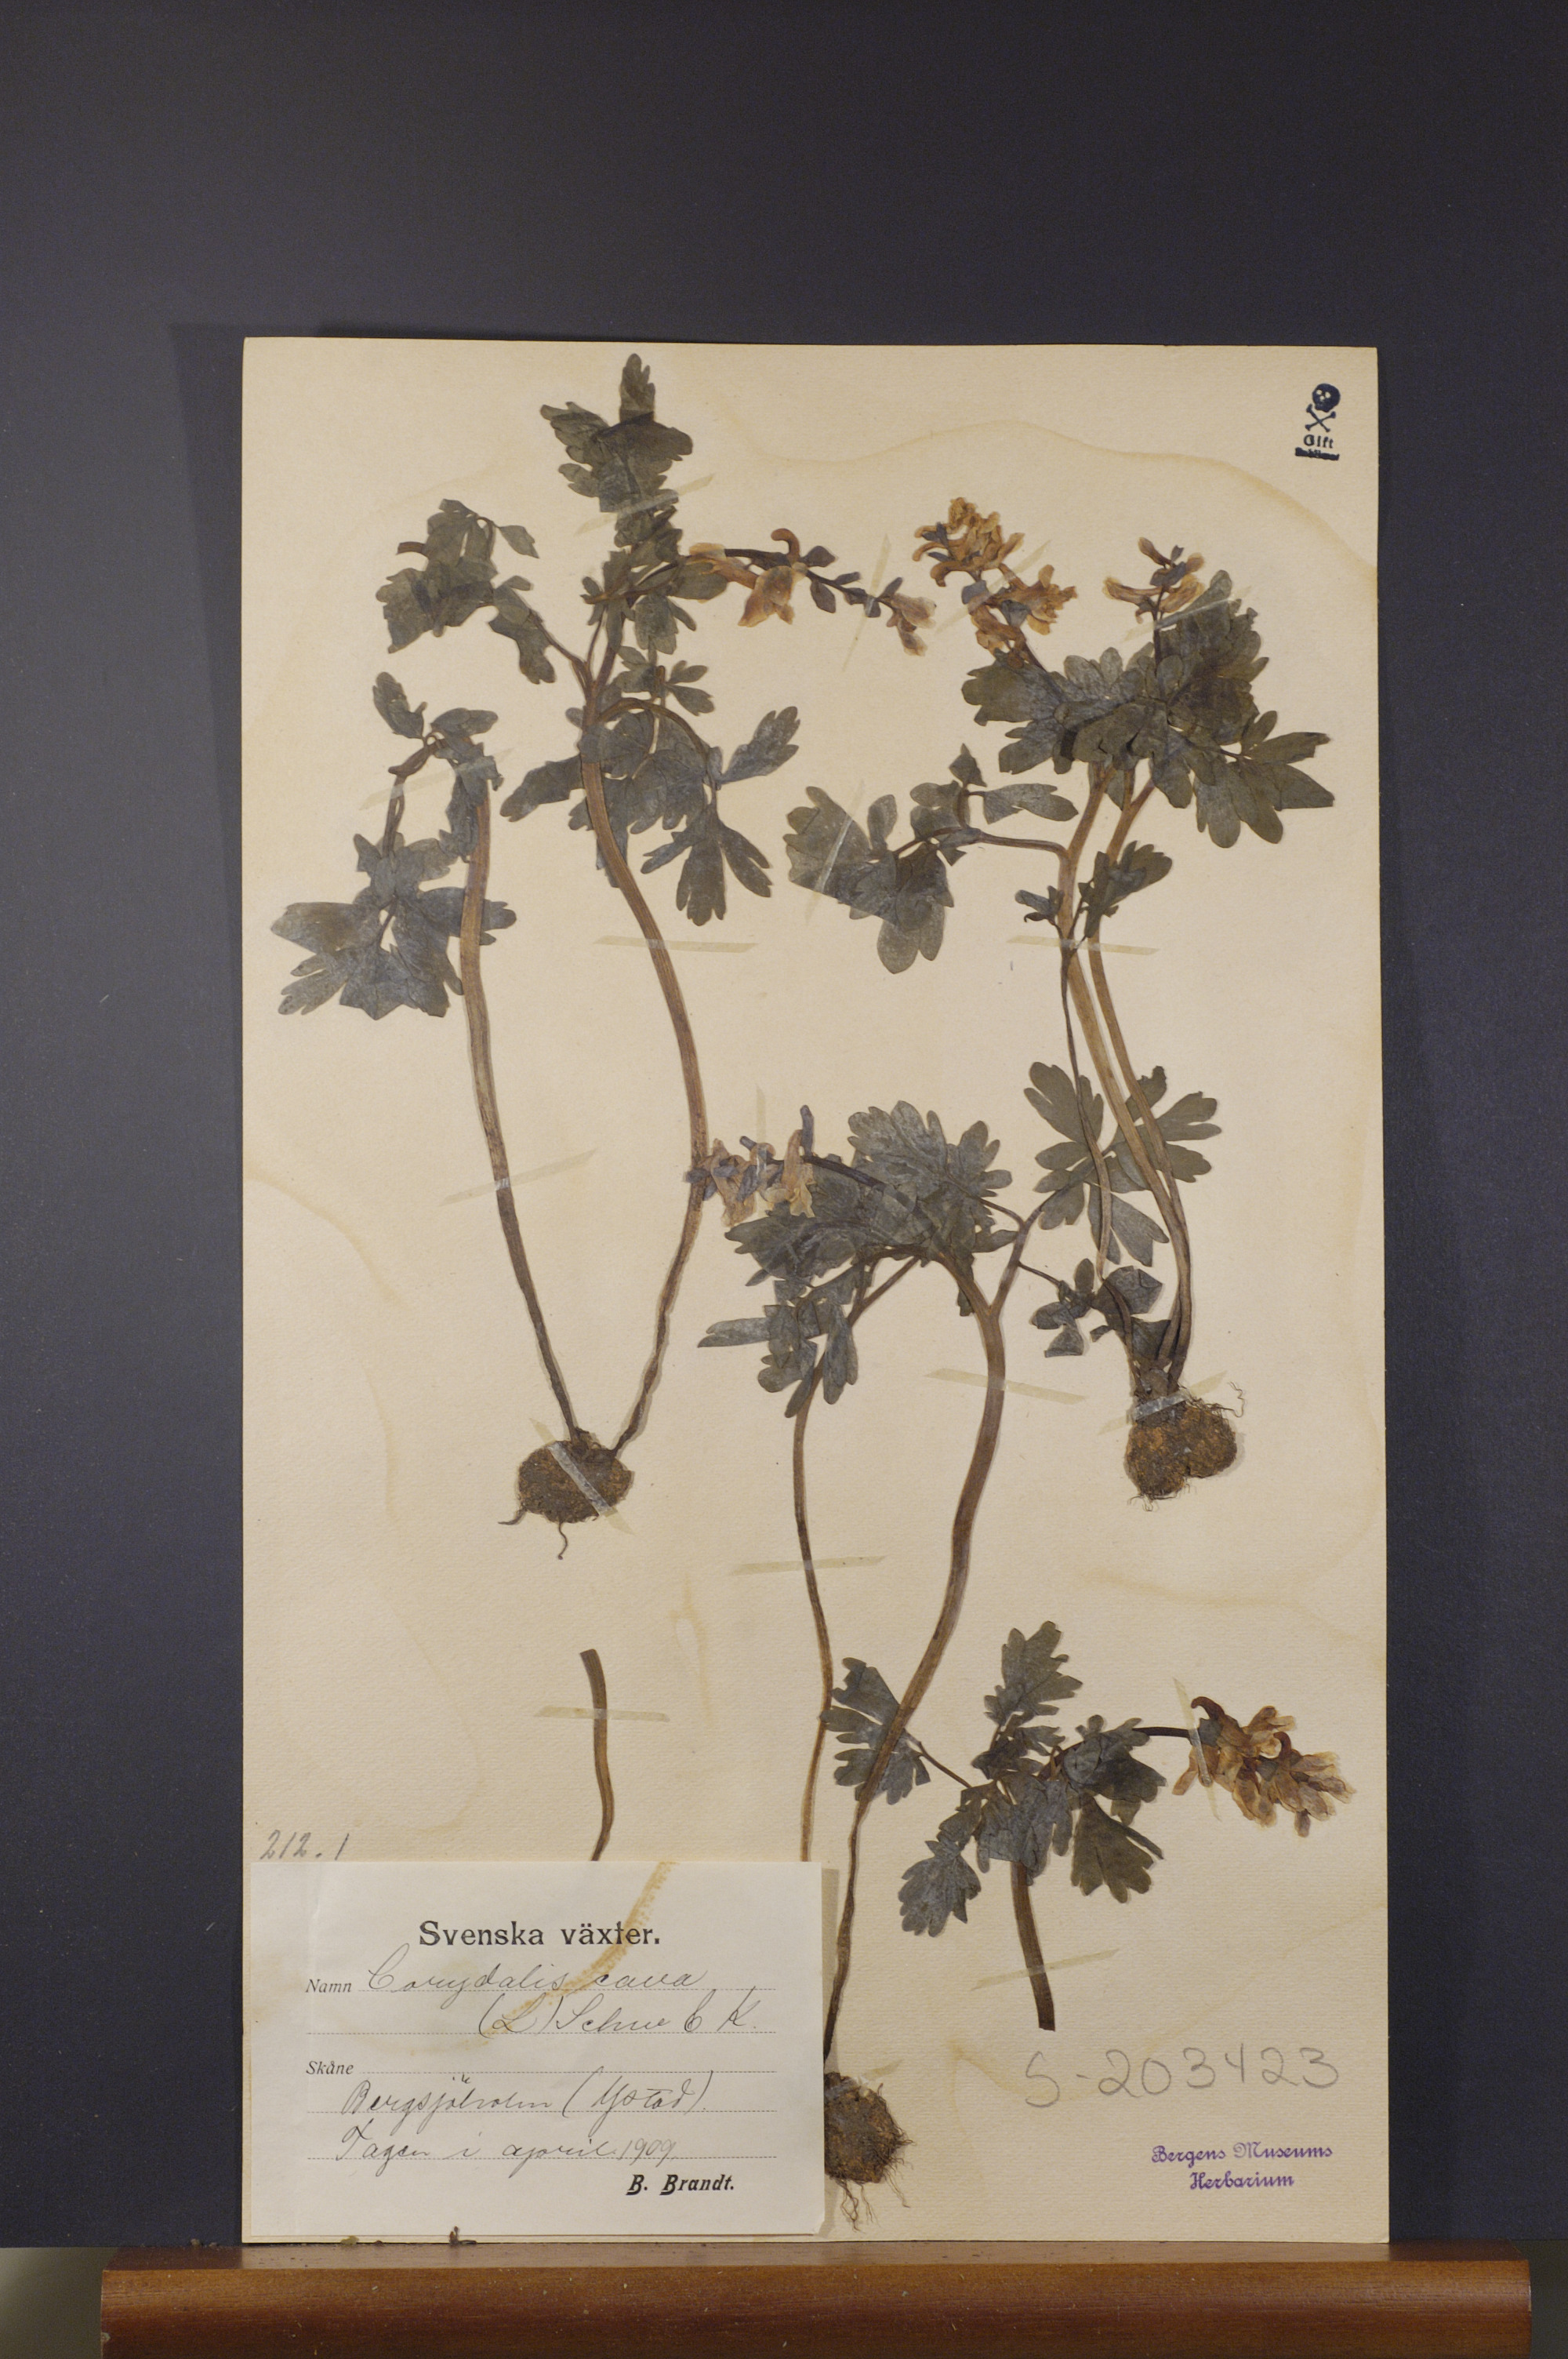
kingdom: Plantae
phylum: Tracheophyta
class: Magnoliopsida
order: Ranunculales
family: Papaveraceae
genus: Corydalis
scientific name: Corydalis cava
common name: Hollowroot
